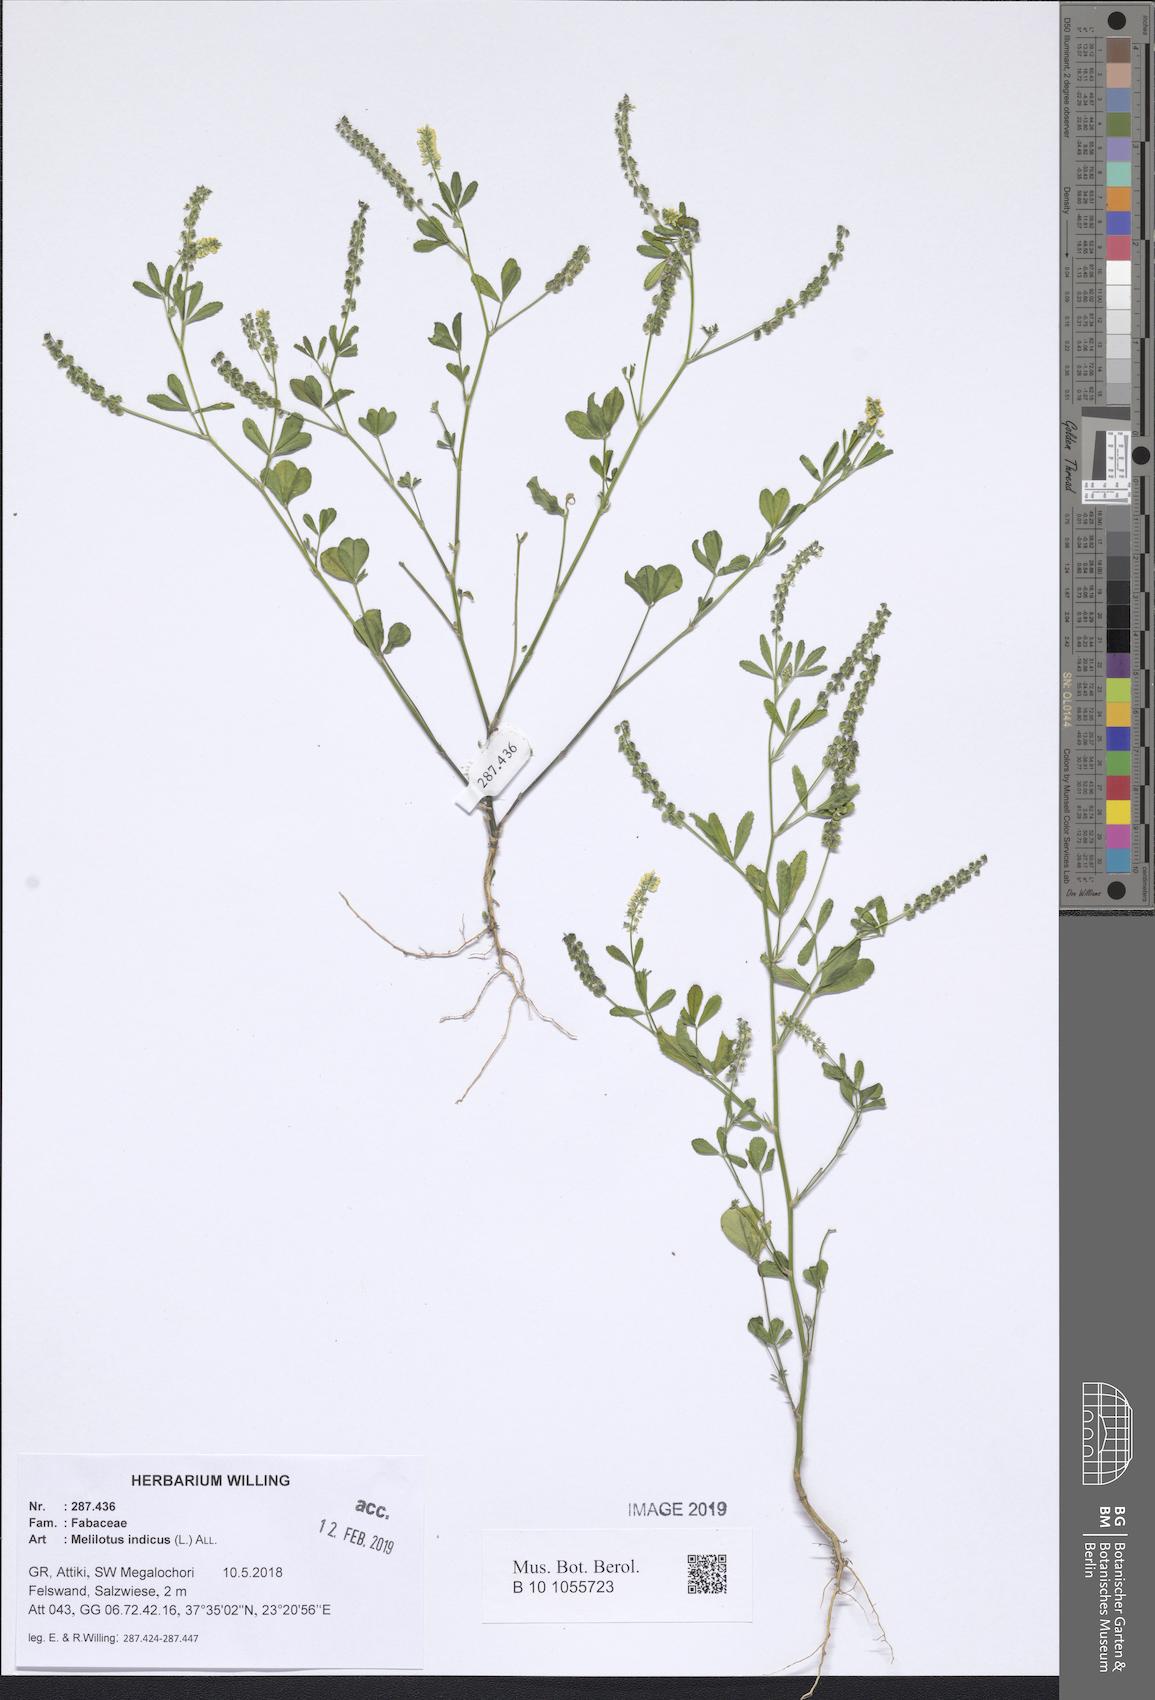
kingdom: Plantae
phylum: Tracheophyta
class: Magnoliopsida
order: Fabales
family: Fabaceae
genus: Melilotus
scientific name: Melilotus indicus
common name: Small melilot
